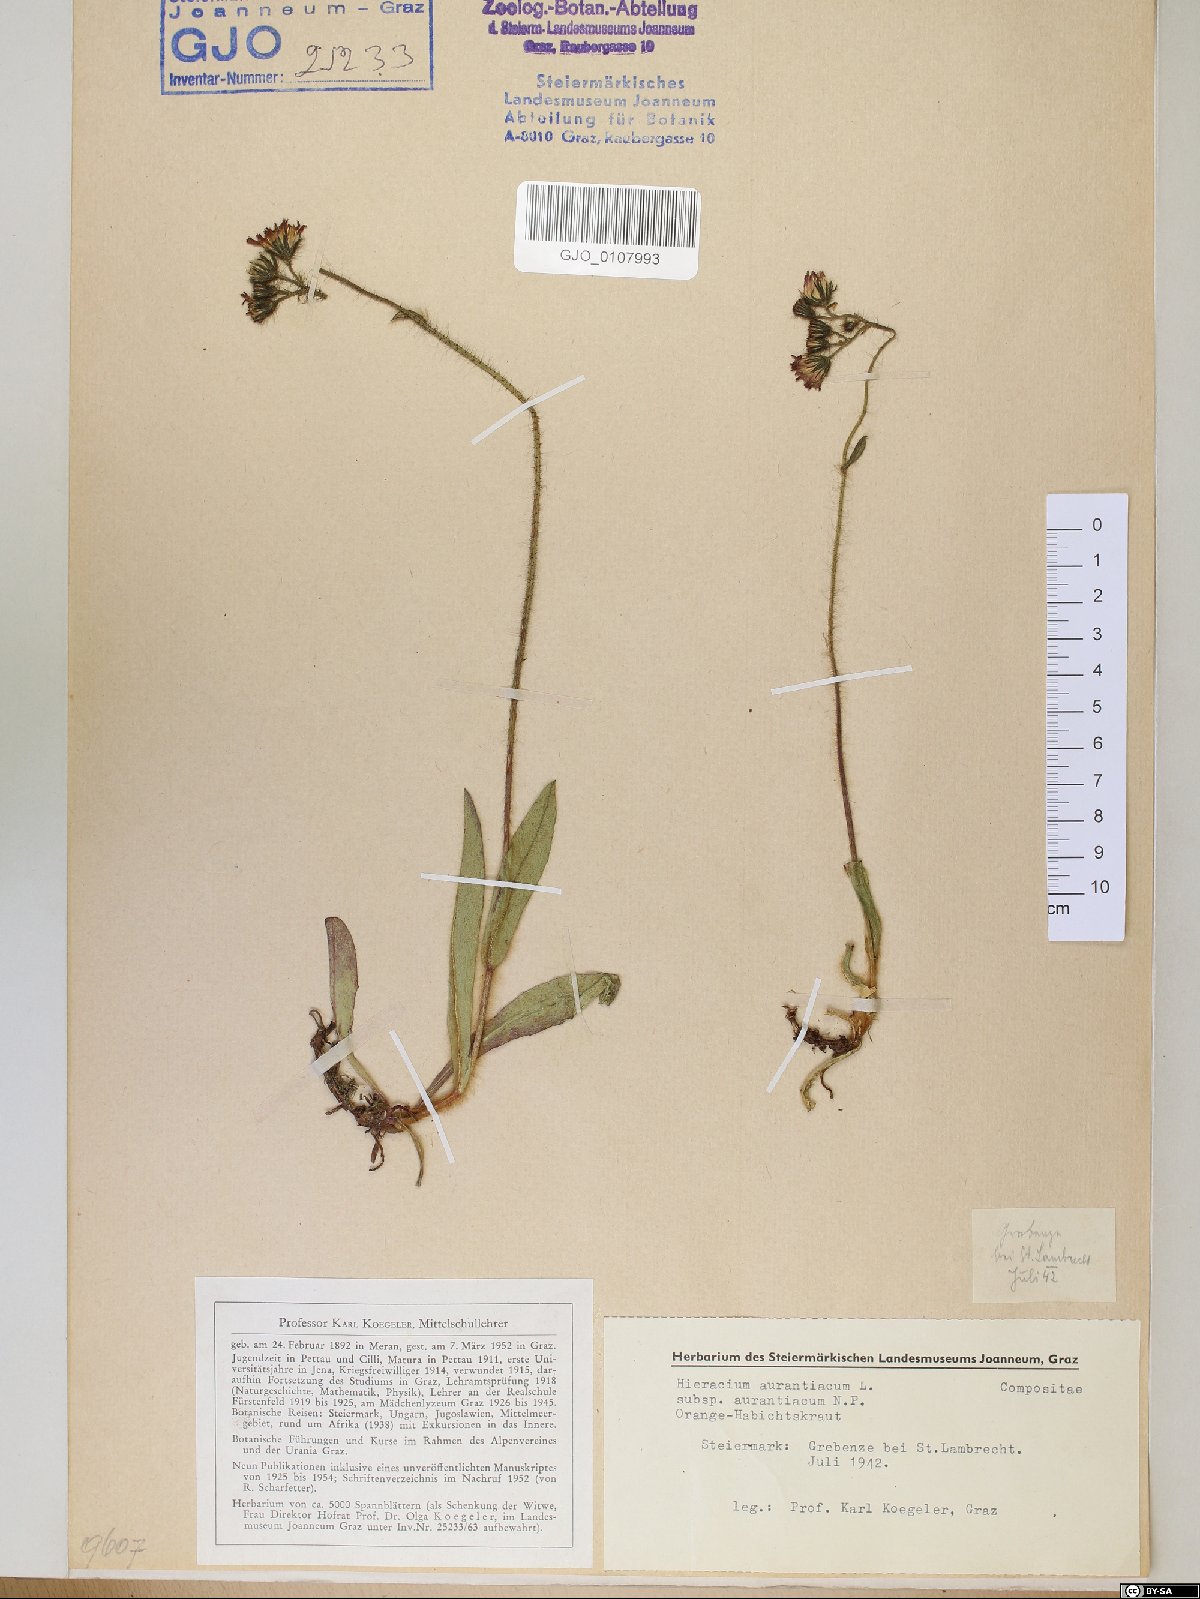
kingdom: Plantae
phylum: Tracheophyta
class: Magnoliopsida
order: Asterales
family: Asteraceae
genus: Pilosella
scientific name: Pilosella aurantiaca
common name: Fox-and-cubs
